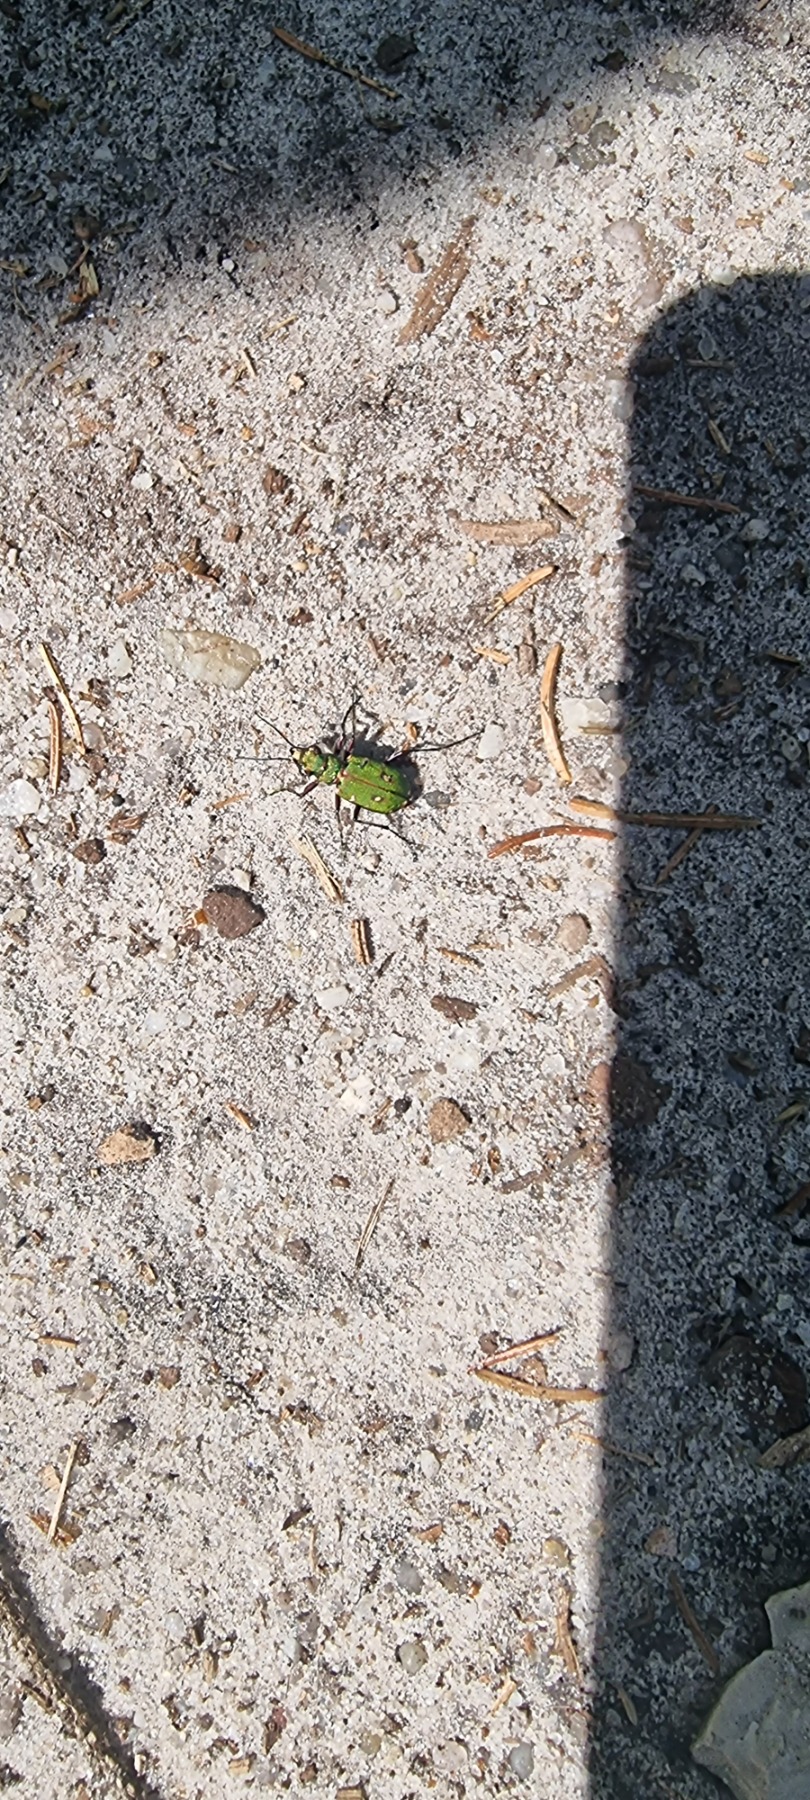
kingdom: Animalia
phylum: Arthropoda
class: Insecta
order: Coleoptera
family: Carabidae
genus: Cicindela
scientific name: Cicindela campestris
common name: Grøn sandspringer
